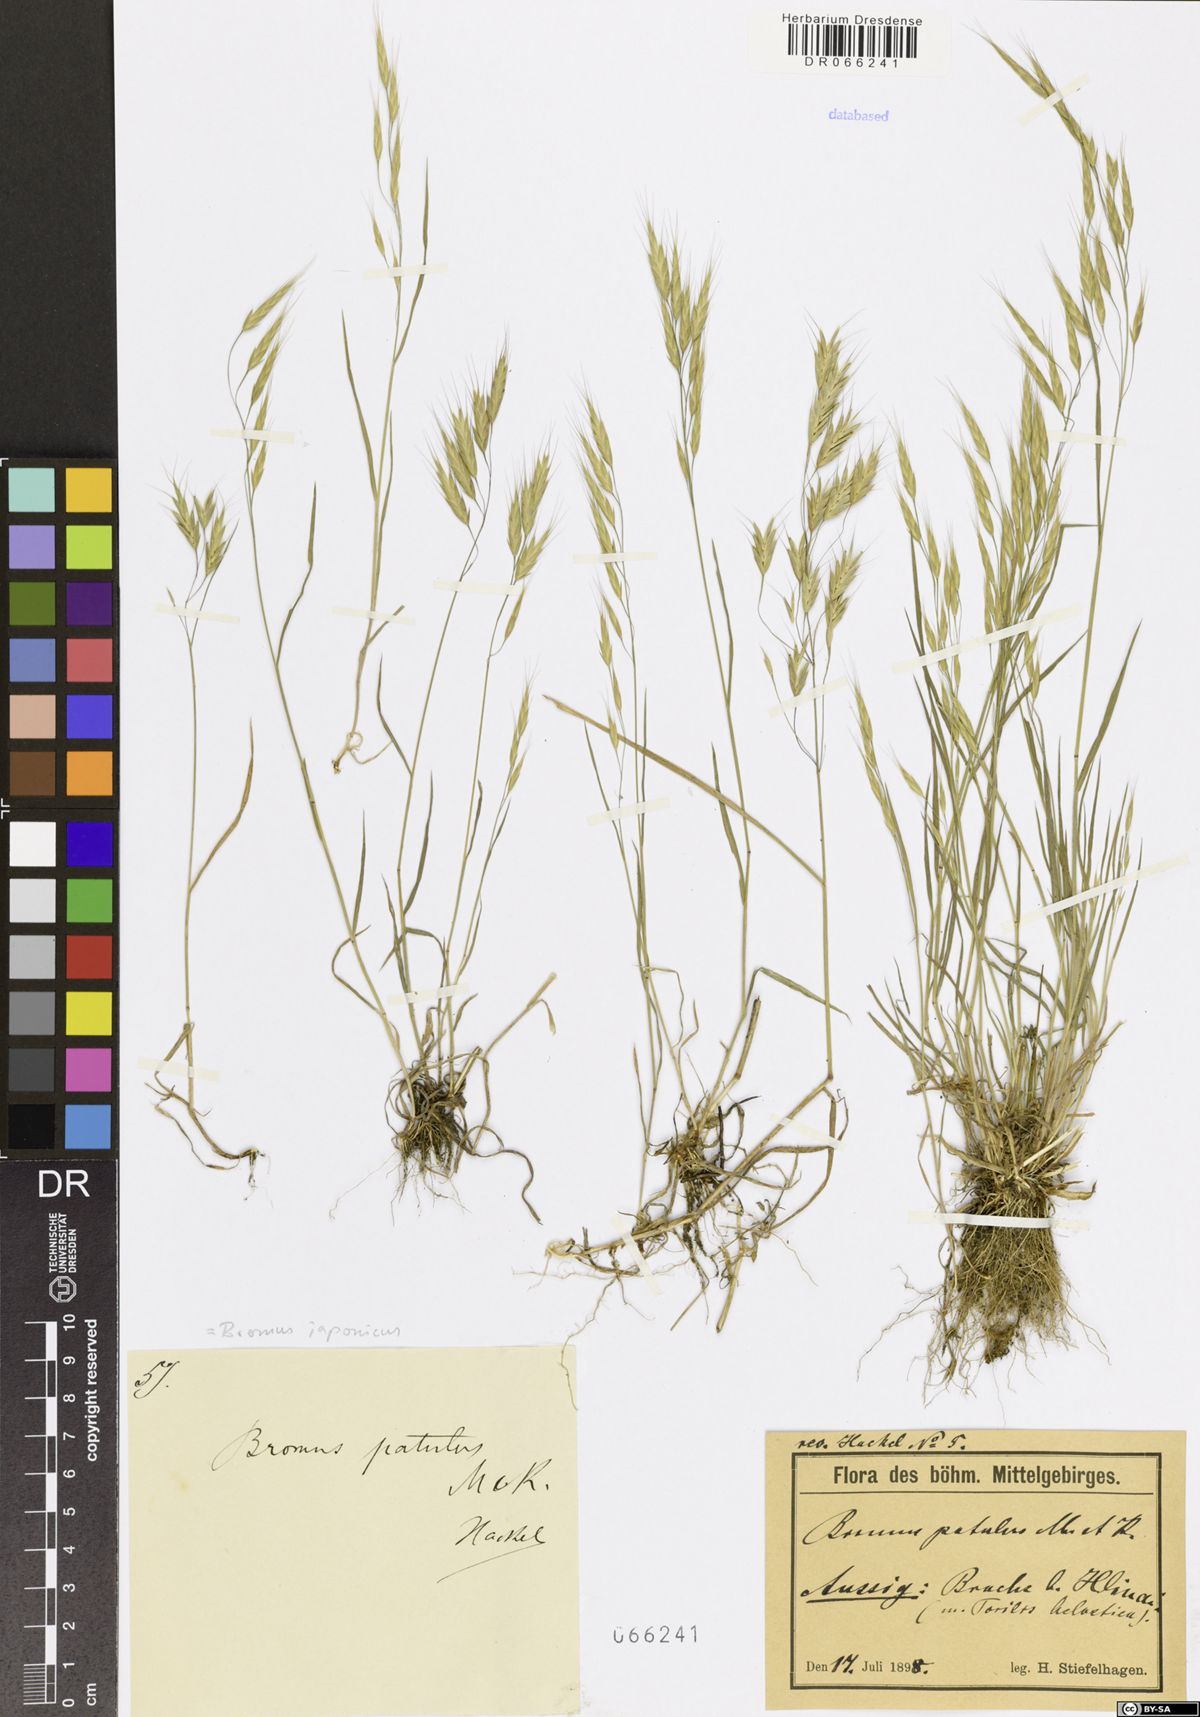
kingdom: Plantae
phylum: Tracheophyta
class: Liliopsida
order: Poales
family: Poaceae
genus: Bromus
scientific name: Bromus japonicus
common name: Japanese brome
